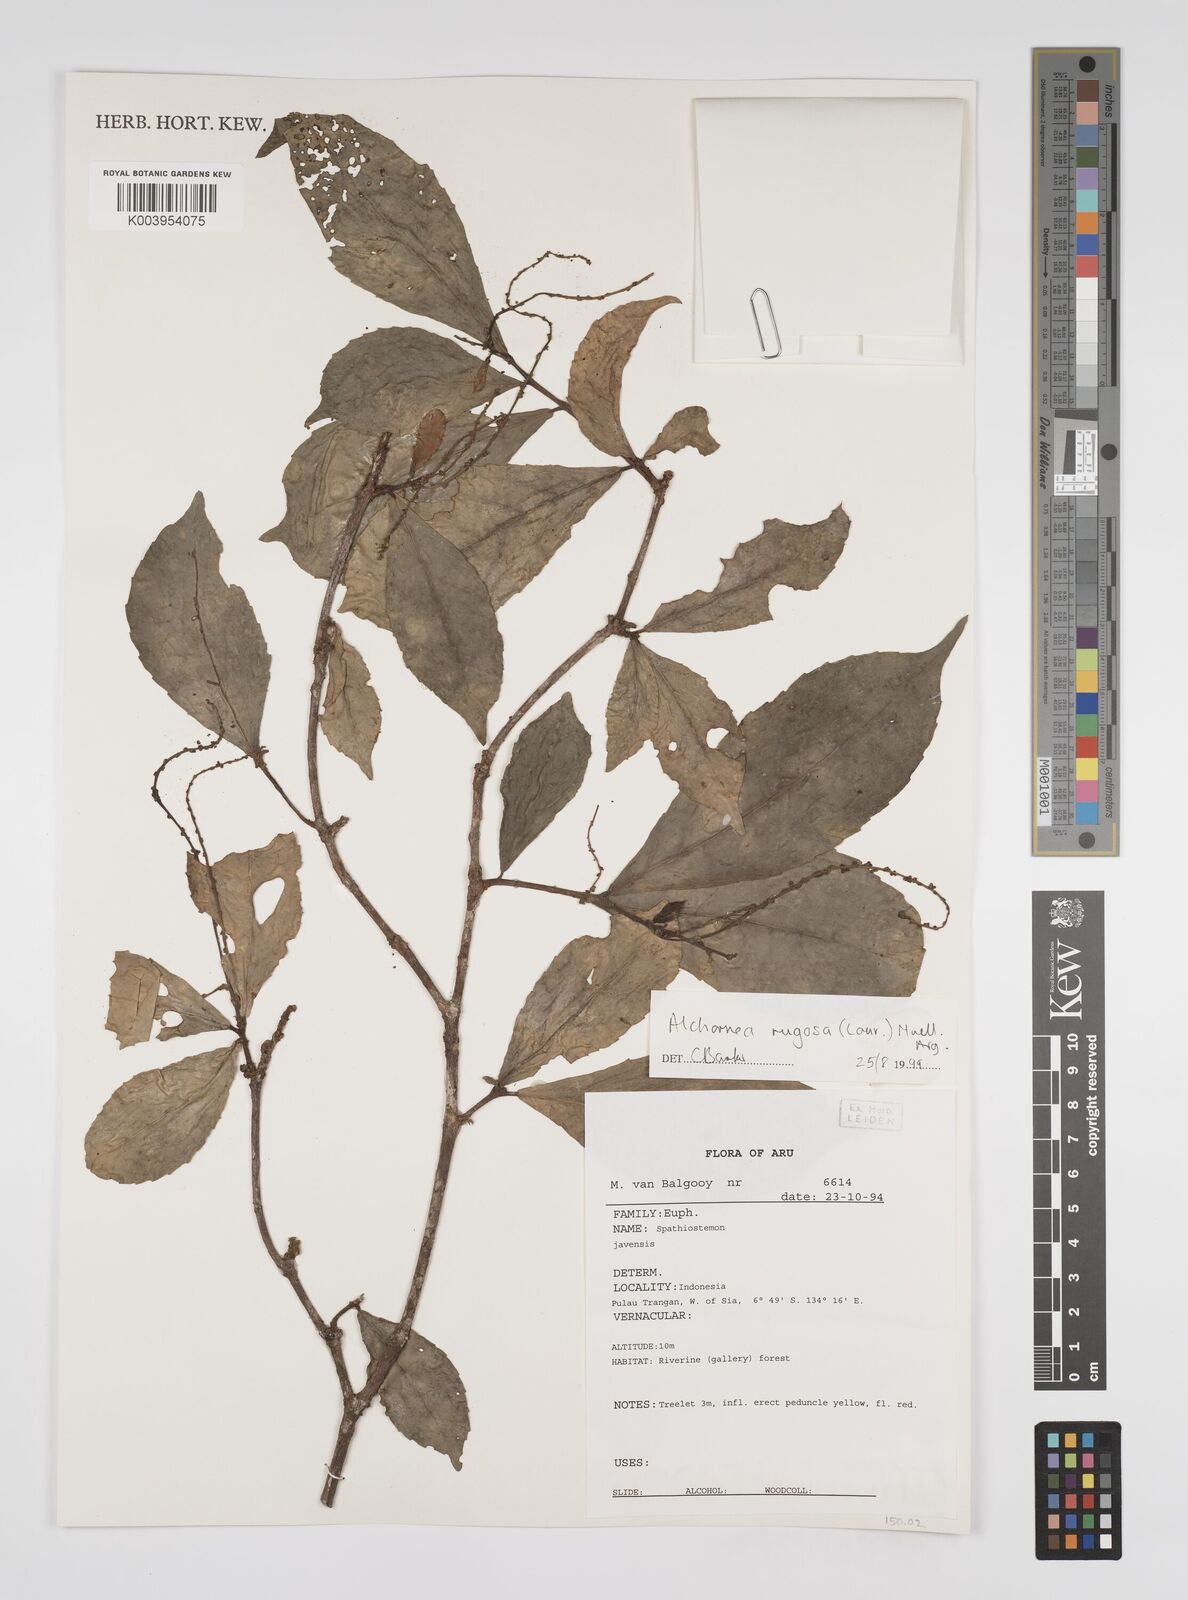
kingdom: Plantae
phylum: Tracheophyta
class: Magnoliopsida
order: Malpighiales
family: Euphorbiaceae
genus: Alchornea
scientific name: Alchornea rugosa
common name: Alchorntree
